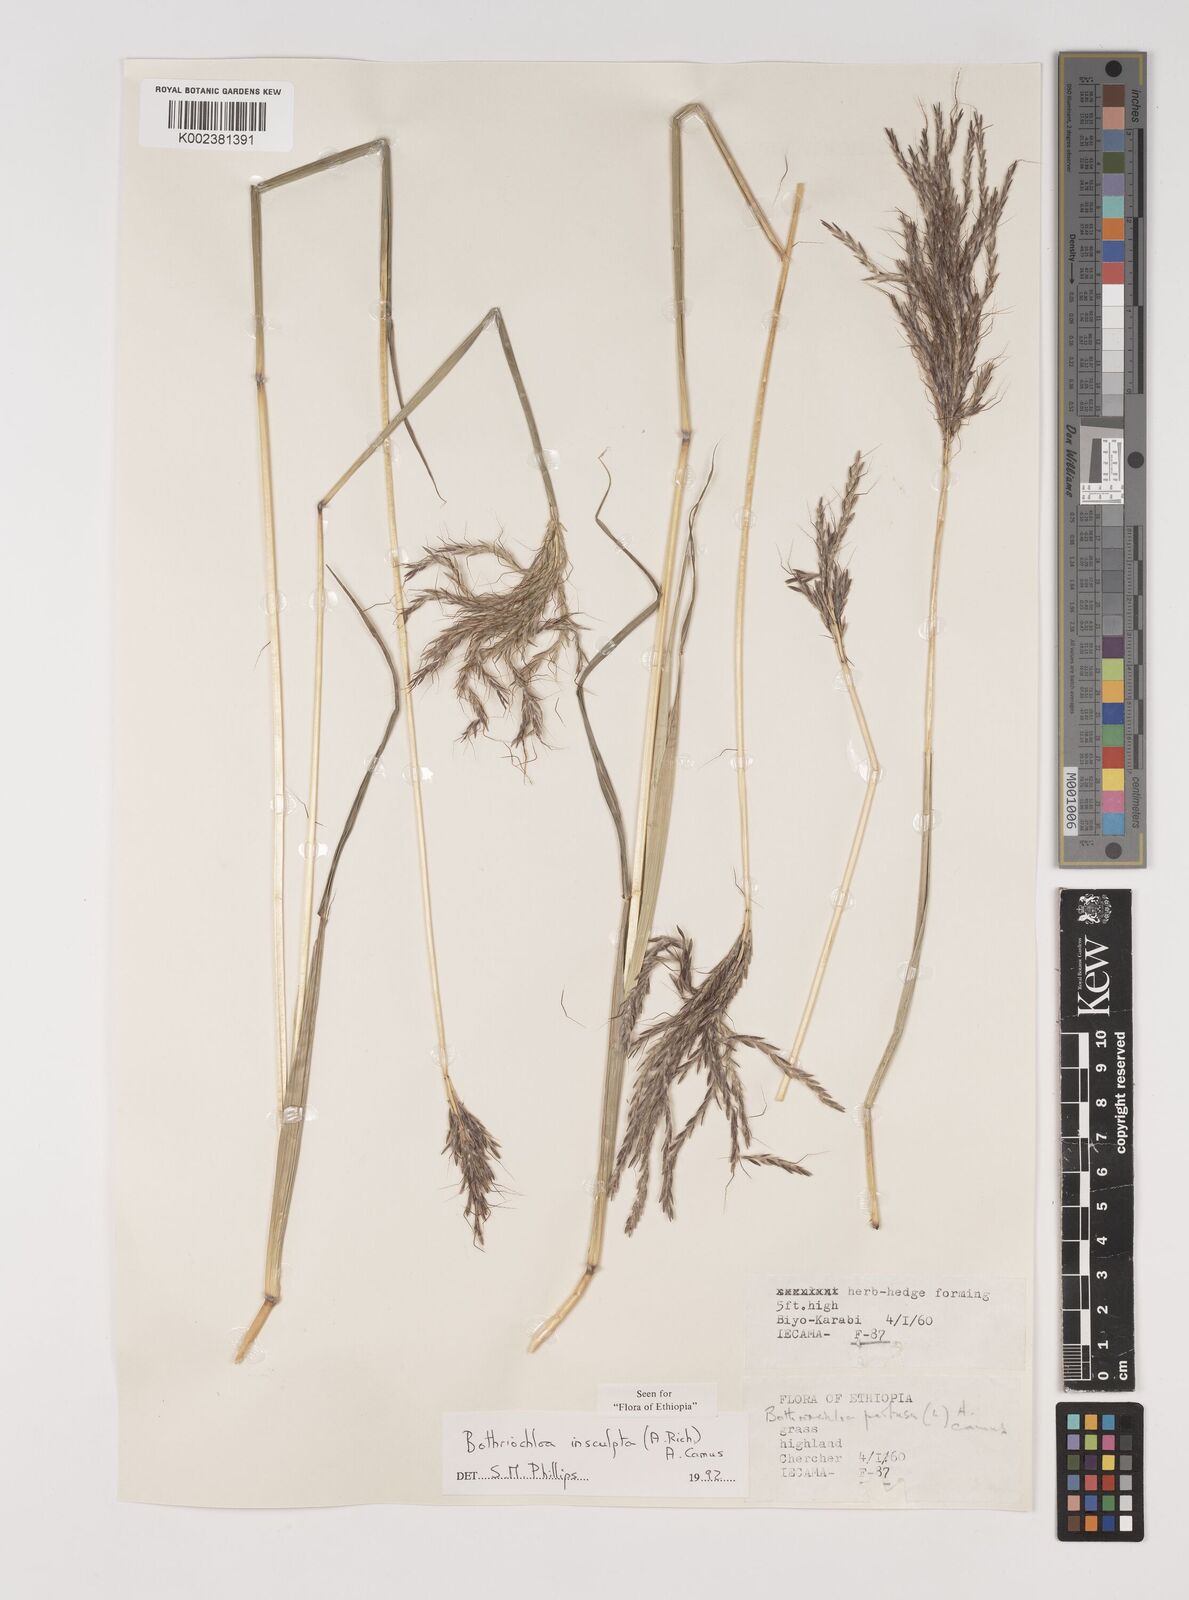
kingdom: Plantae
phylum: Tracheophyta
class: Liliopsida
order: Poales
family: Poaceae
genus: Bothriochloa
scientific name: Bothriochloa insculpta
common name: Creeping-bluegrass
